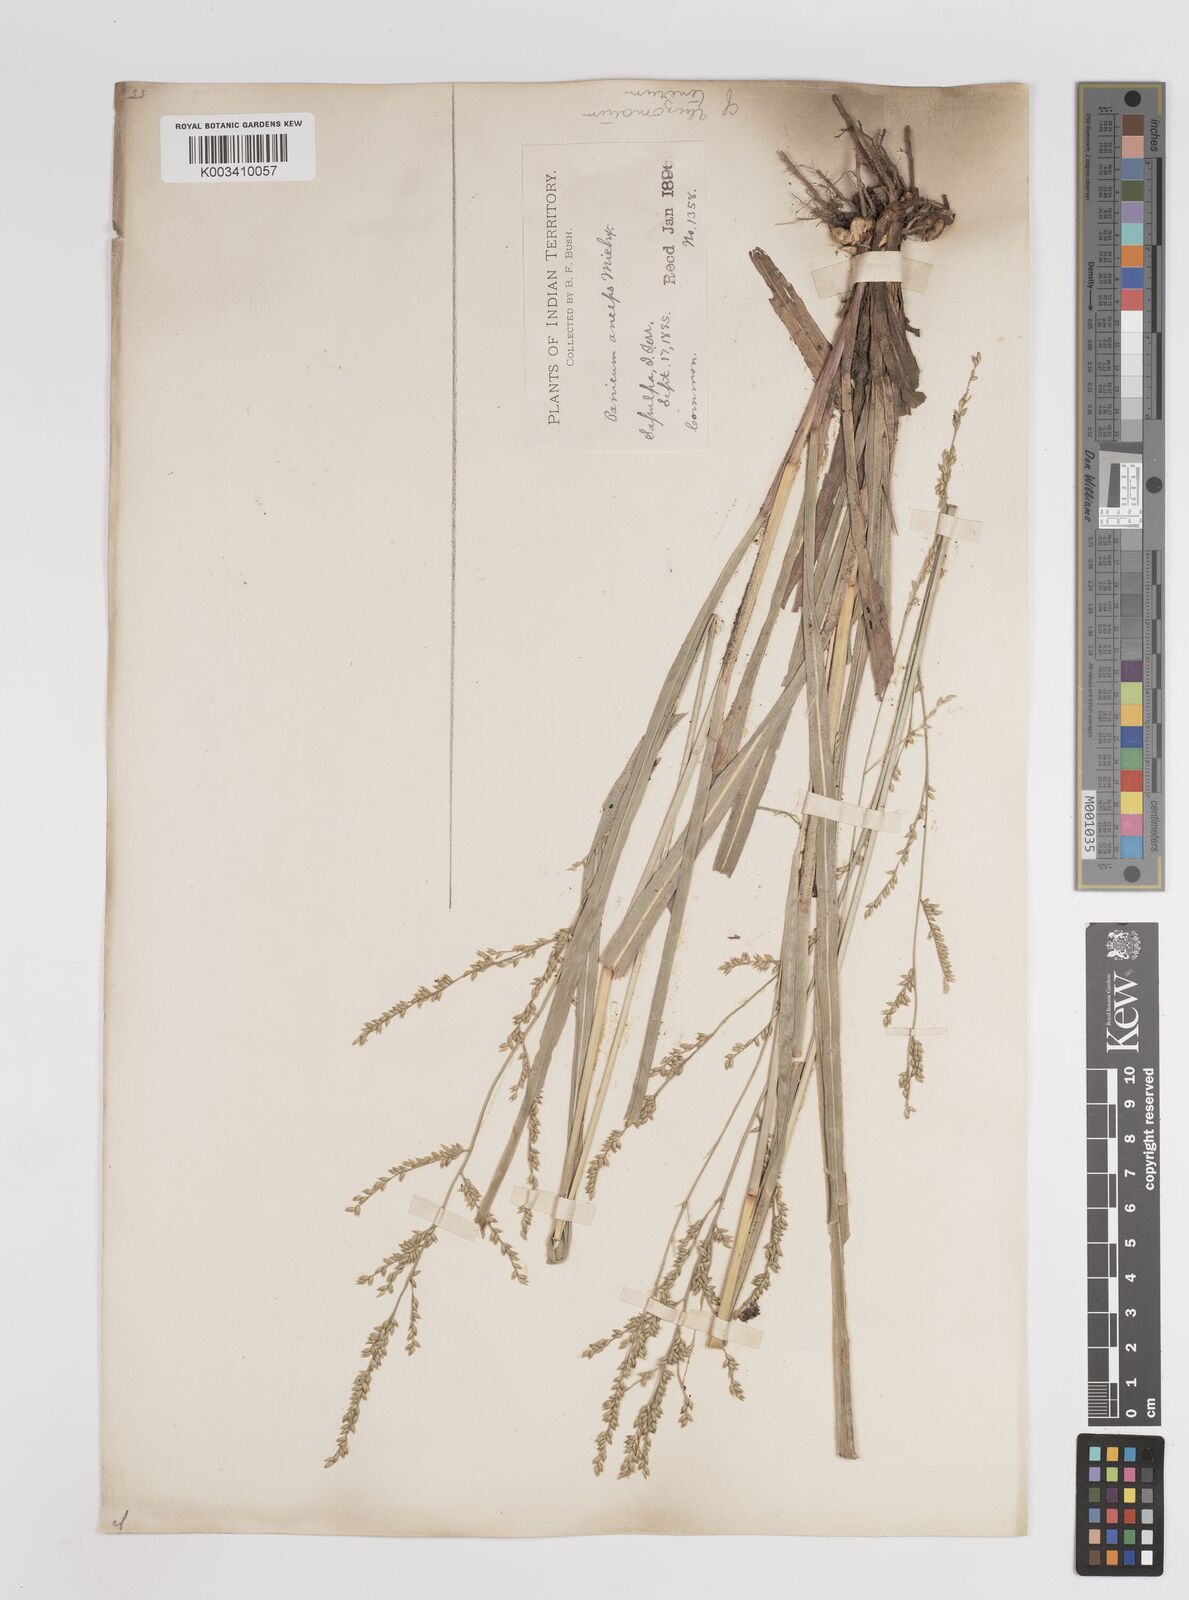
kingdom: Plantae
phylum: Tracheophyta
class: Liliopsida
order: Poales
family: Poaceae
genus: Coleataenia
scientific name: Coleataenia anceps
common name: Beaked panic grass
